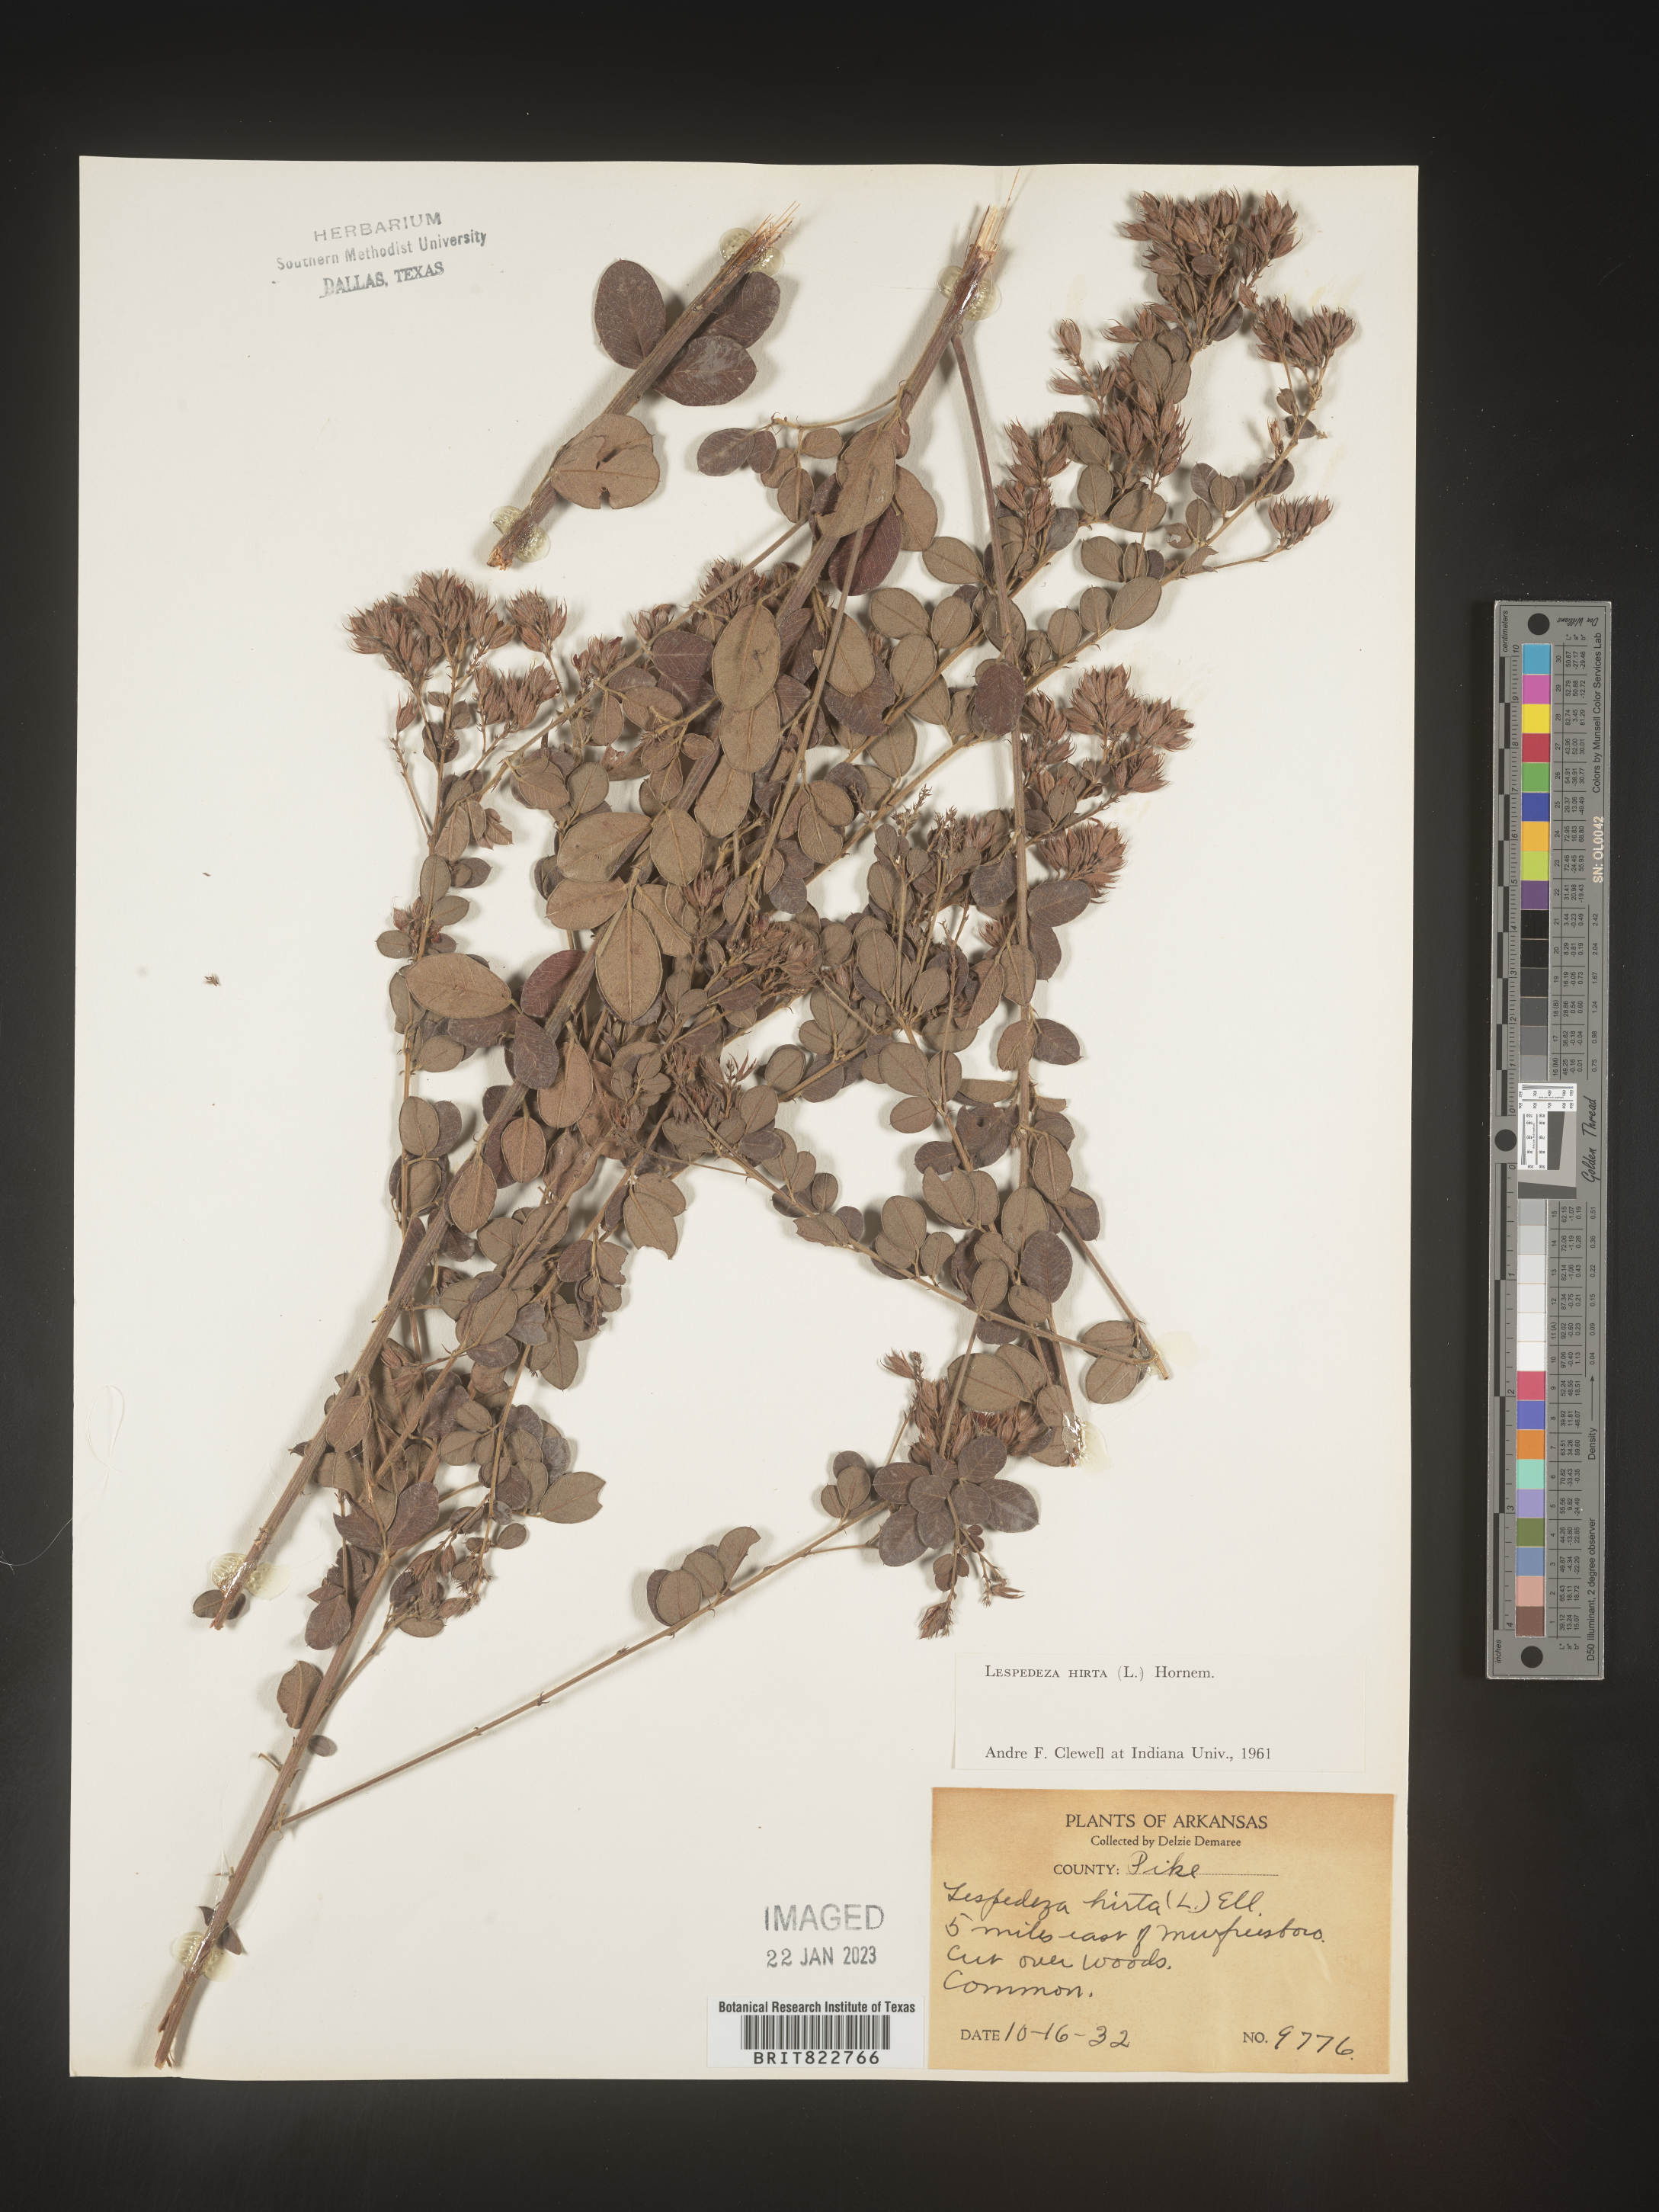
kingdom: Plantae
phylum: Tracheophyta
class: Magnoliopsida
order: Fabales
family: Fabaceae
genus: Lespedeza
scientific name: Lespedeza hirta
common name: Hairy lespedeza
